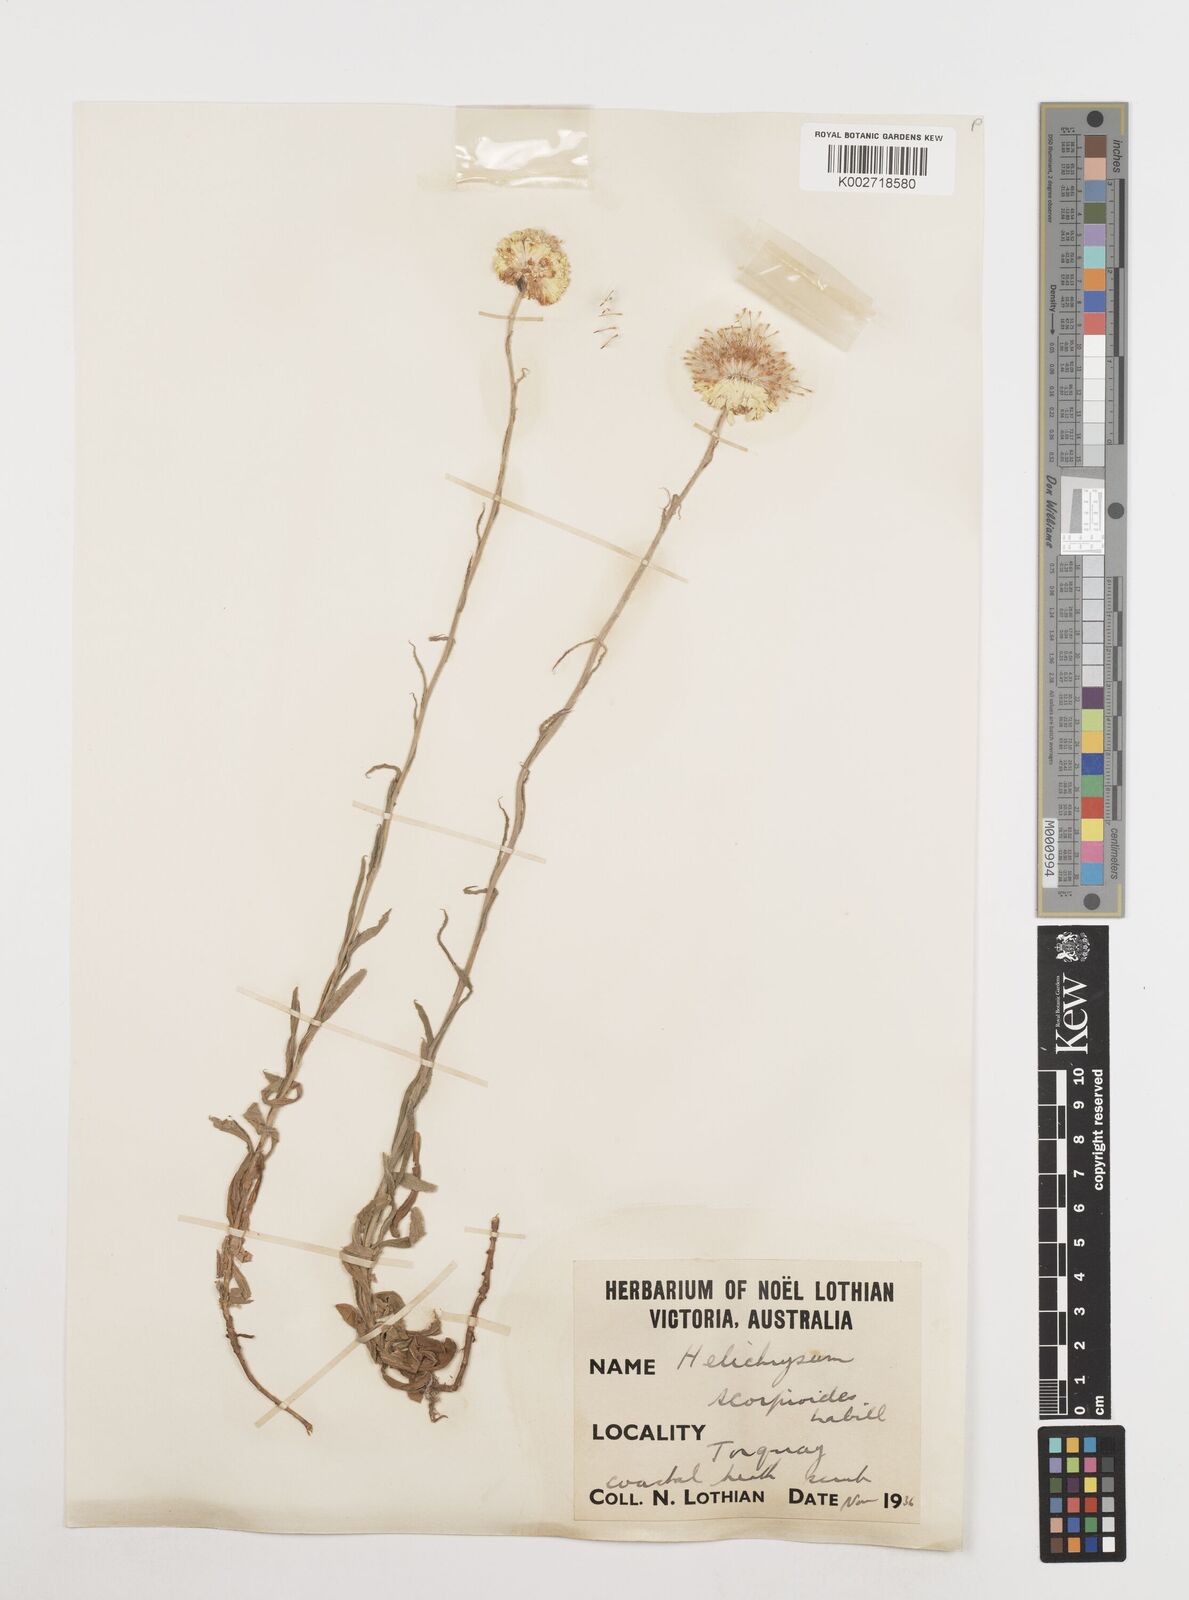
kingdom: Plantae
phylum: Tracheophyta
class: Magnoliopsida
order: Asterales
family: Asteraceae
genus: Coronidium
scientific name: Coronidium scorpioides
